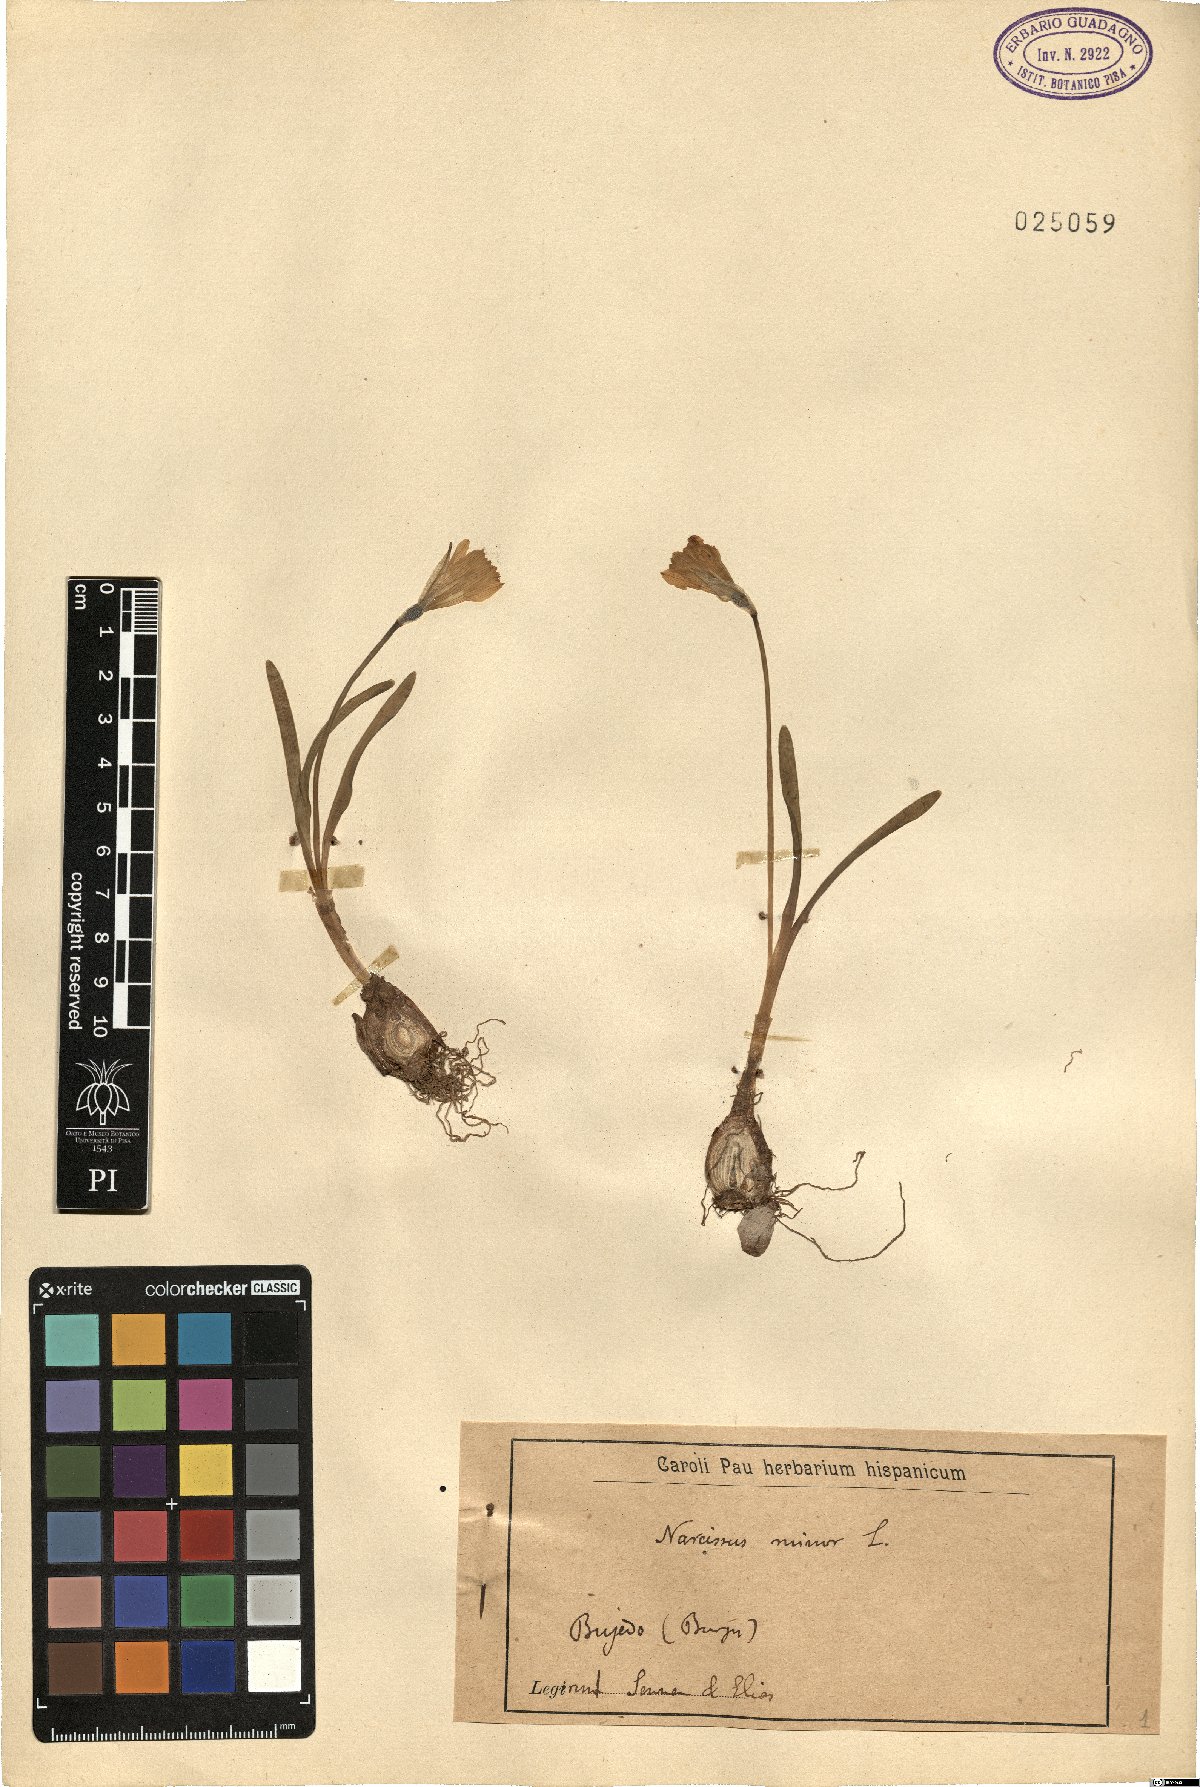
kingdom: Plantae
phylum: Tracheophyta
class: Liliopsida
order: Asparagales
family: Amaryllidaceae
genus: Narcissus
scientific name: Narcissus minor
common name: Lesser daffodil
